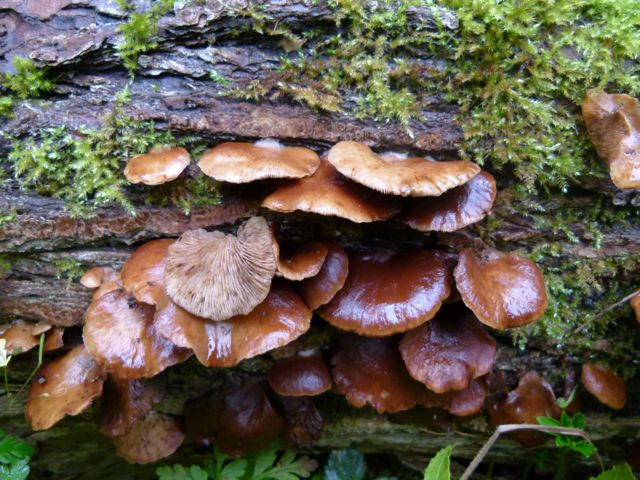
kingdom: Fungi
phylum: Basidiomycota
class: Agaricomycetes
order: Agaricales
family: Crepidotaceae
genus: Crepidotus
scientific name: Crepidotus mollis
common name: blød muslingesvamp
